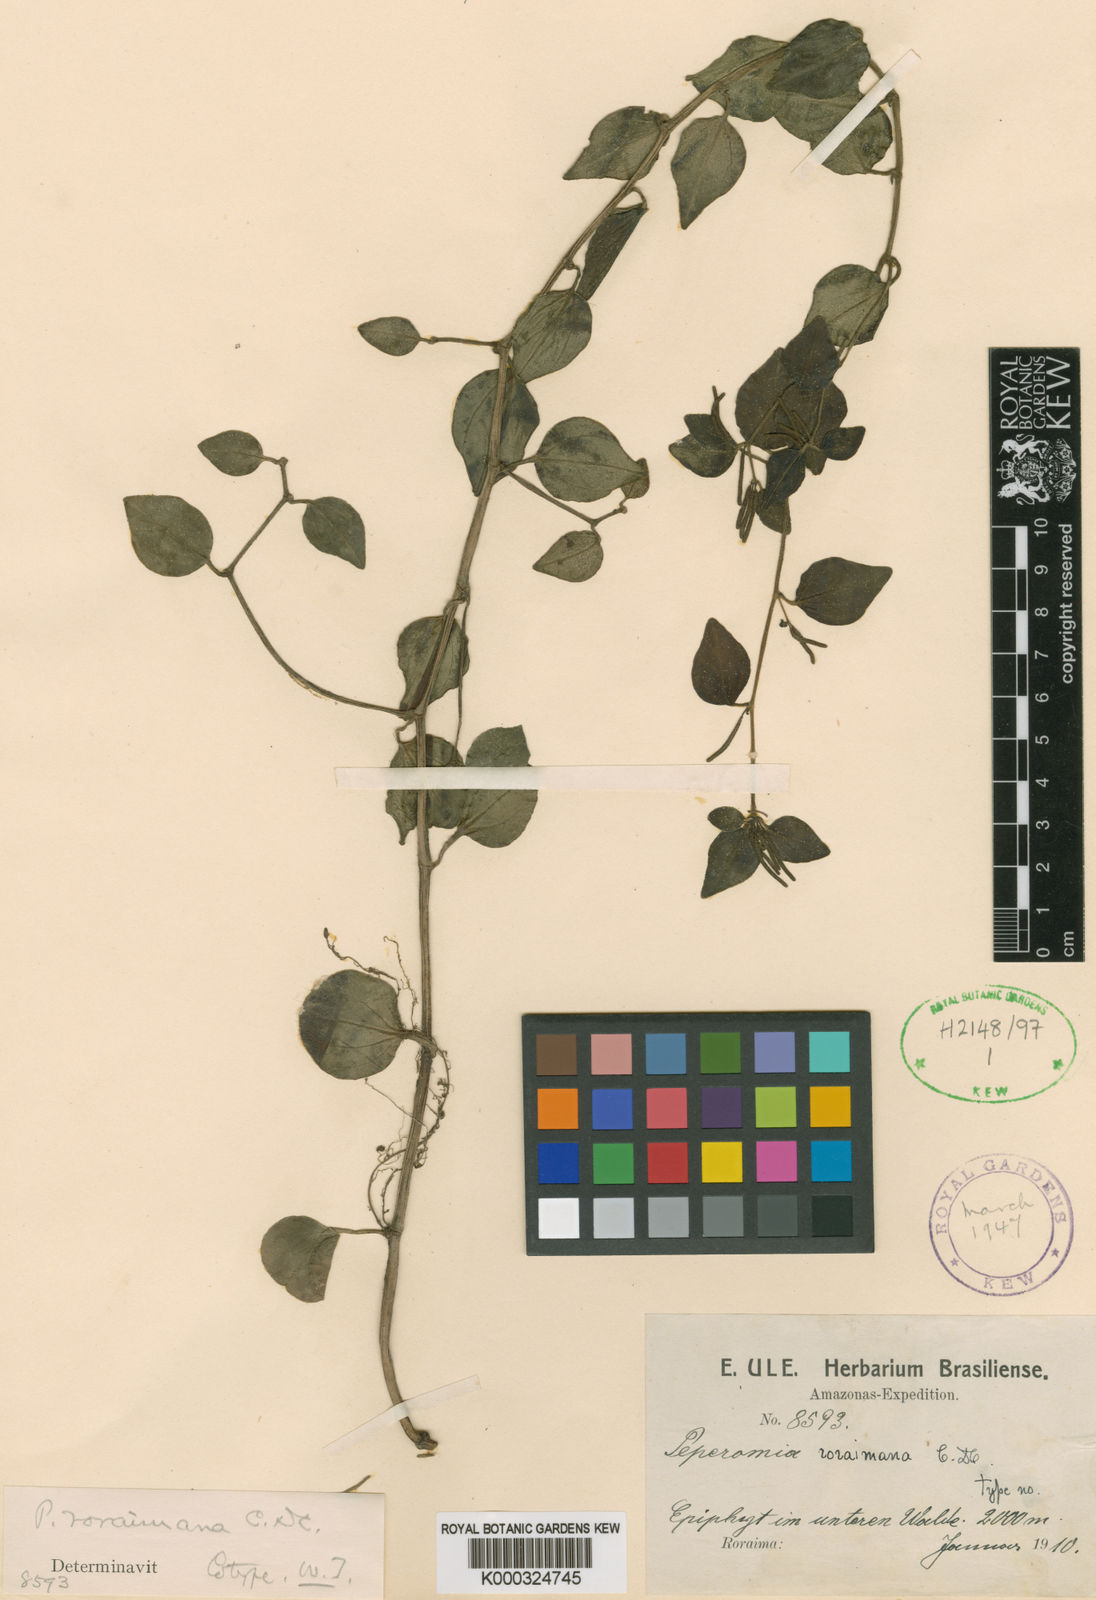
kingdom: Plantae
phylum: Tracheophyta
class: Magnoliopsida
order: Piperales
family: Piperaceae
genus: Peperomia
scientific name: Peperomia trinervula
